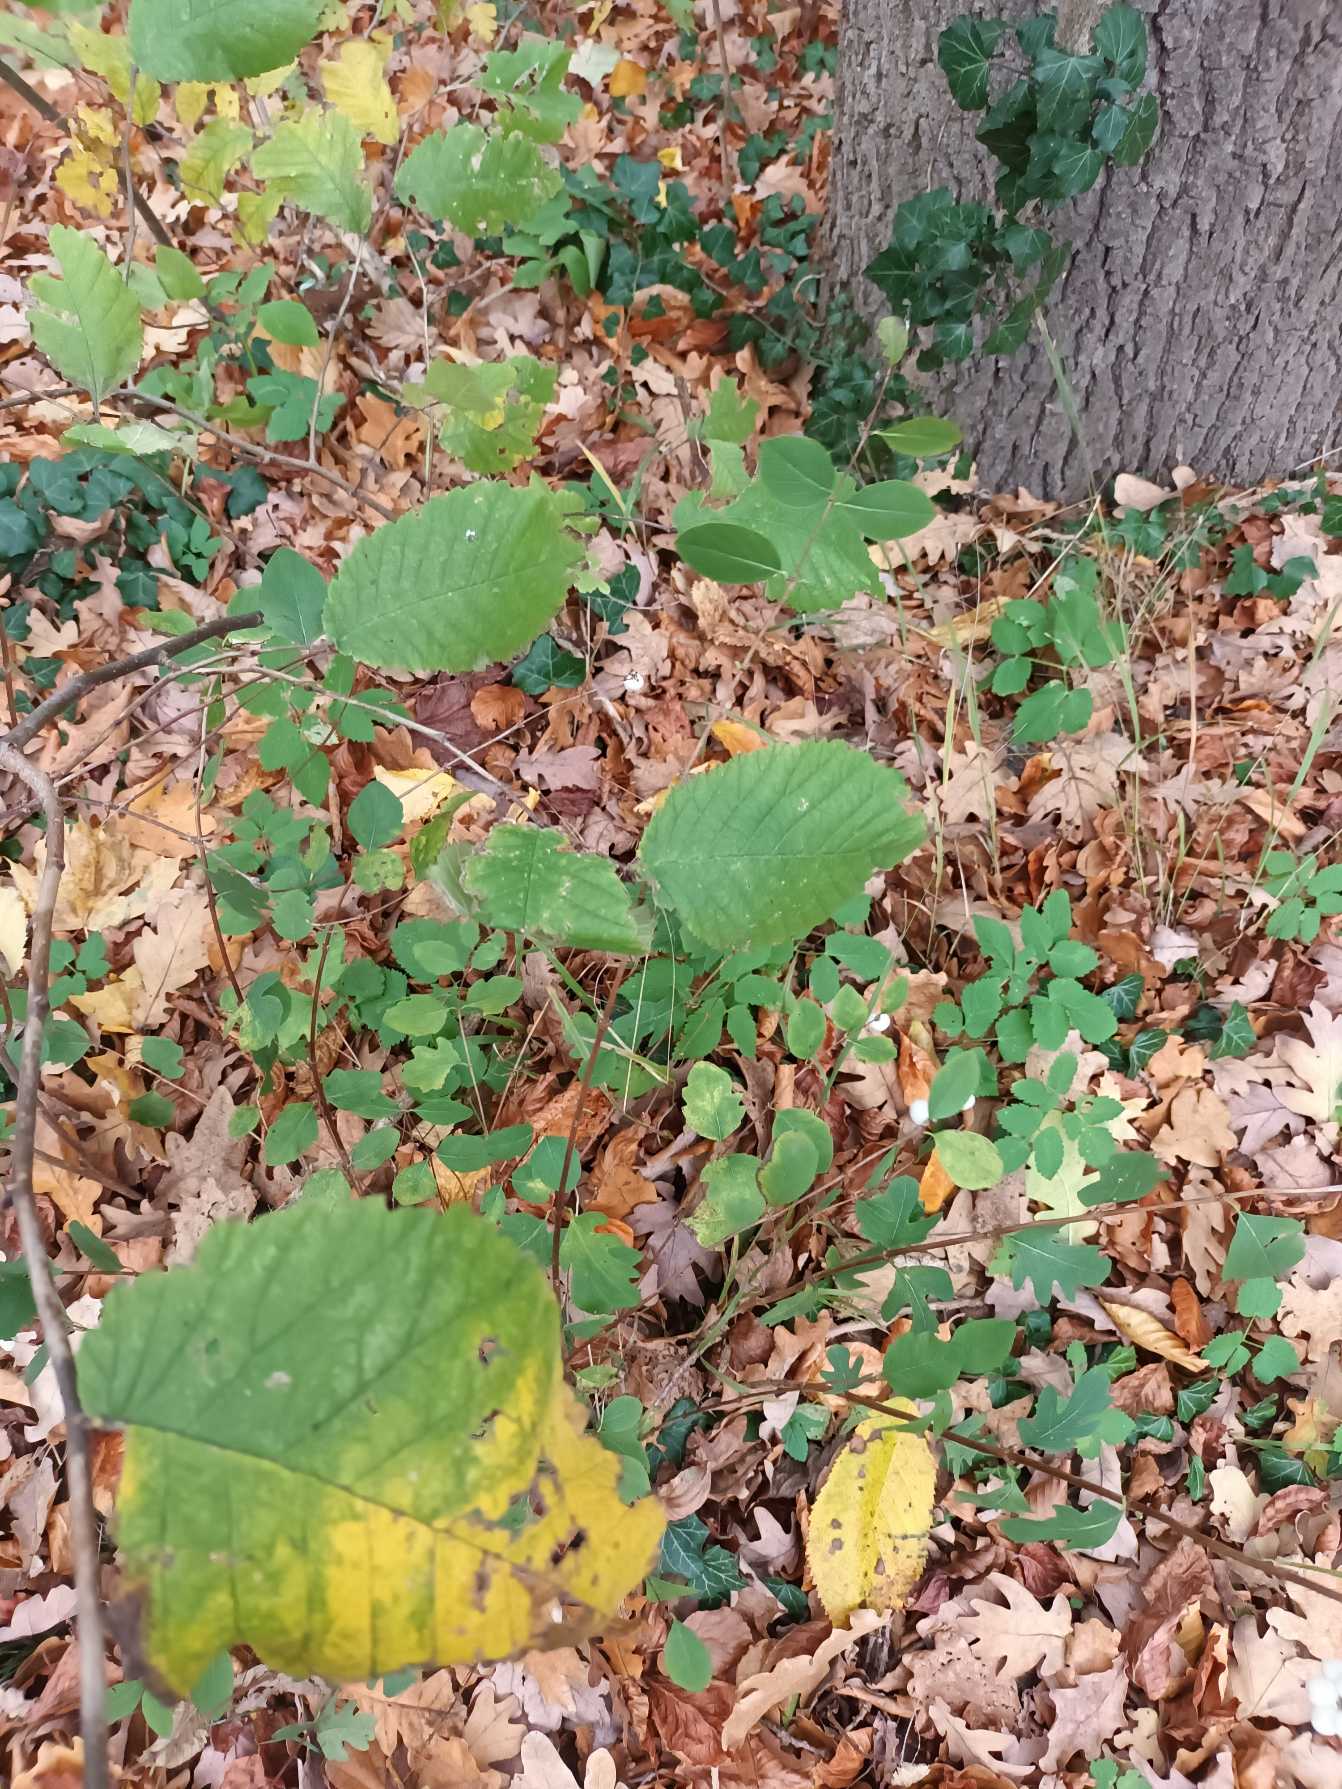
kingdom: Plantae
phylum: Tracheophyta
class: Magnoliopsida
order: Rosales
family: Ulmaceae
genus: Ulmus
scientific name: Ulmus glabra
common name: Skov-elm/storbladet elm
